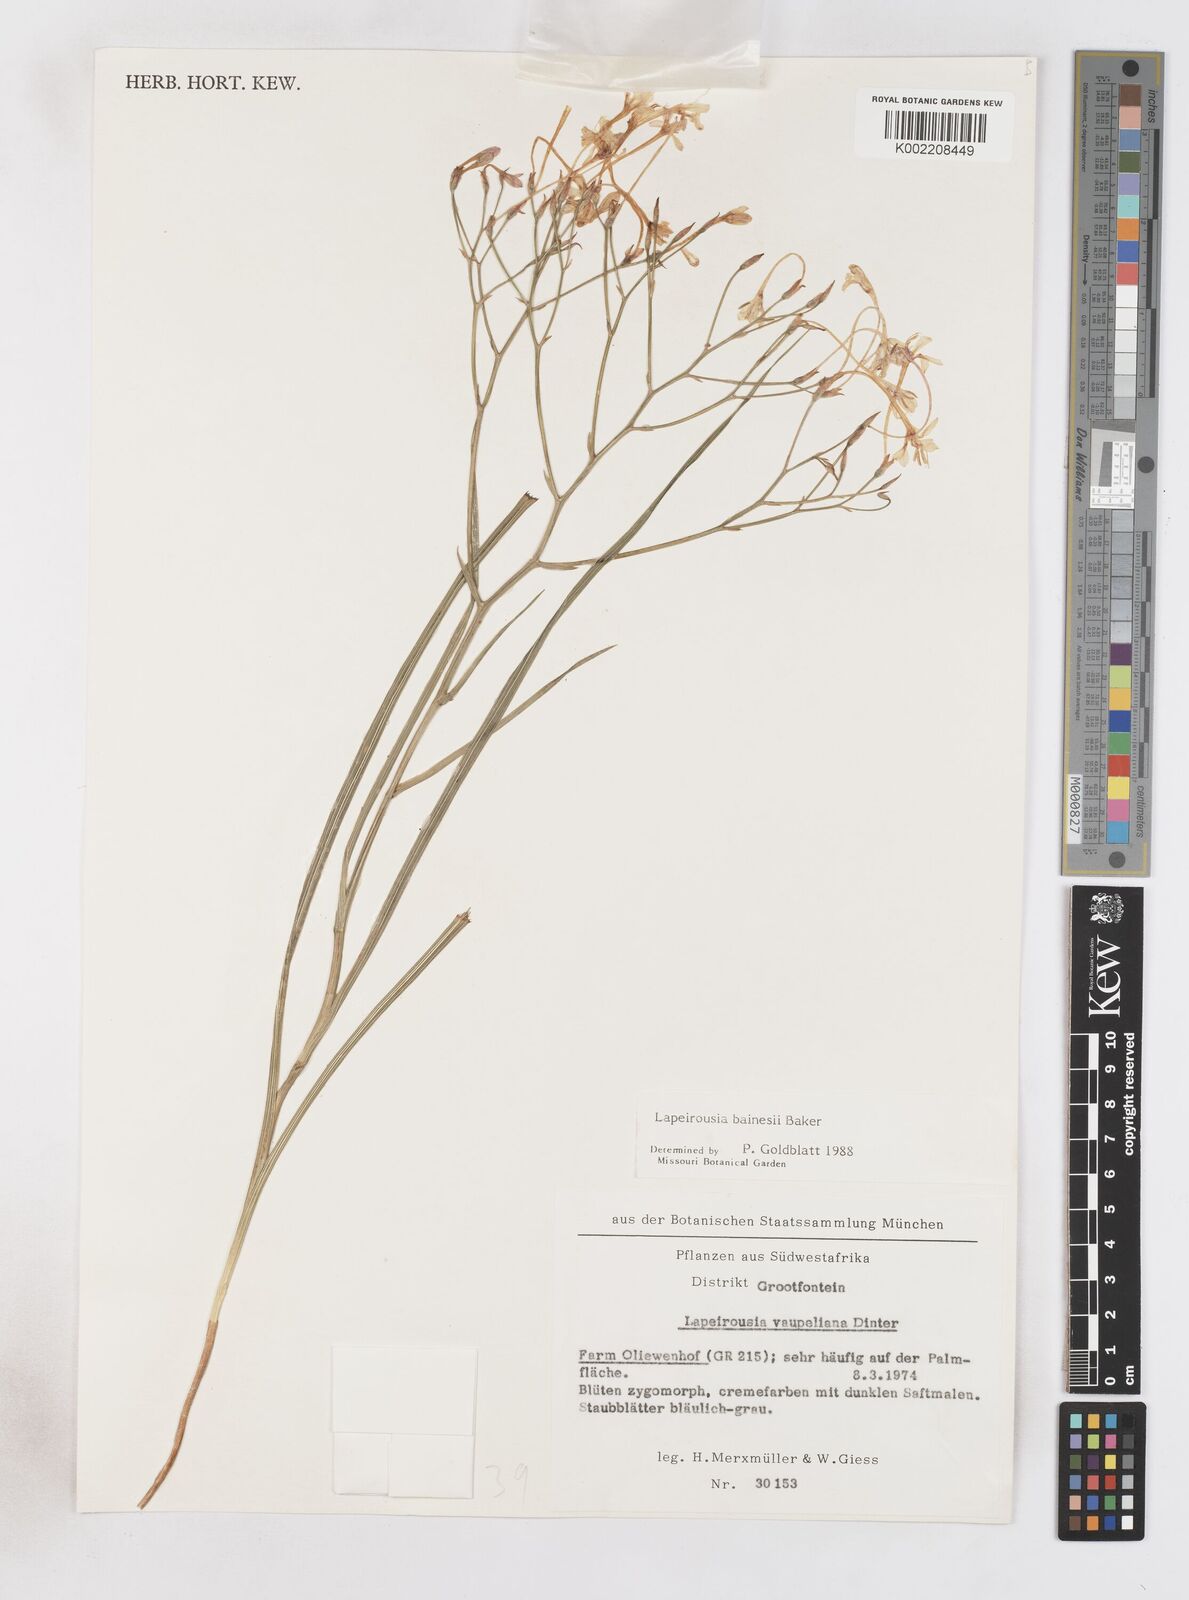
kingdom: Plantae
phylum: Tracheophyta
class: Liliopsida
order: Asparagales
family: Iridaceae
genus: Afrosolen
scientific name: Afrosolen erythranthus
